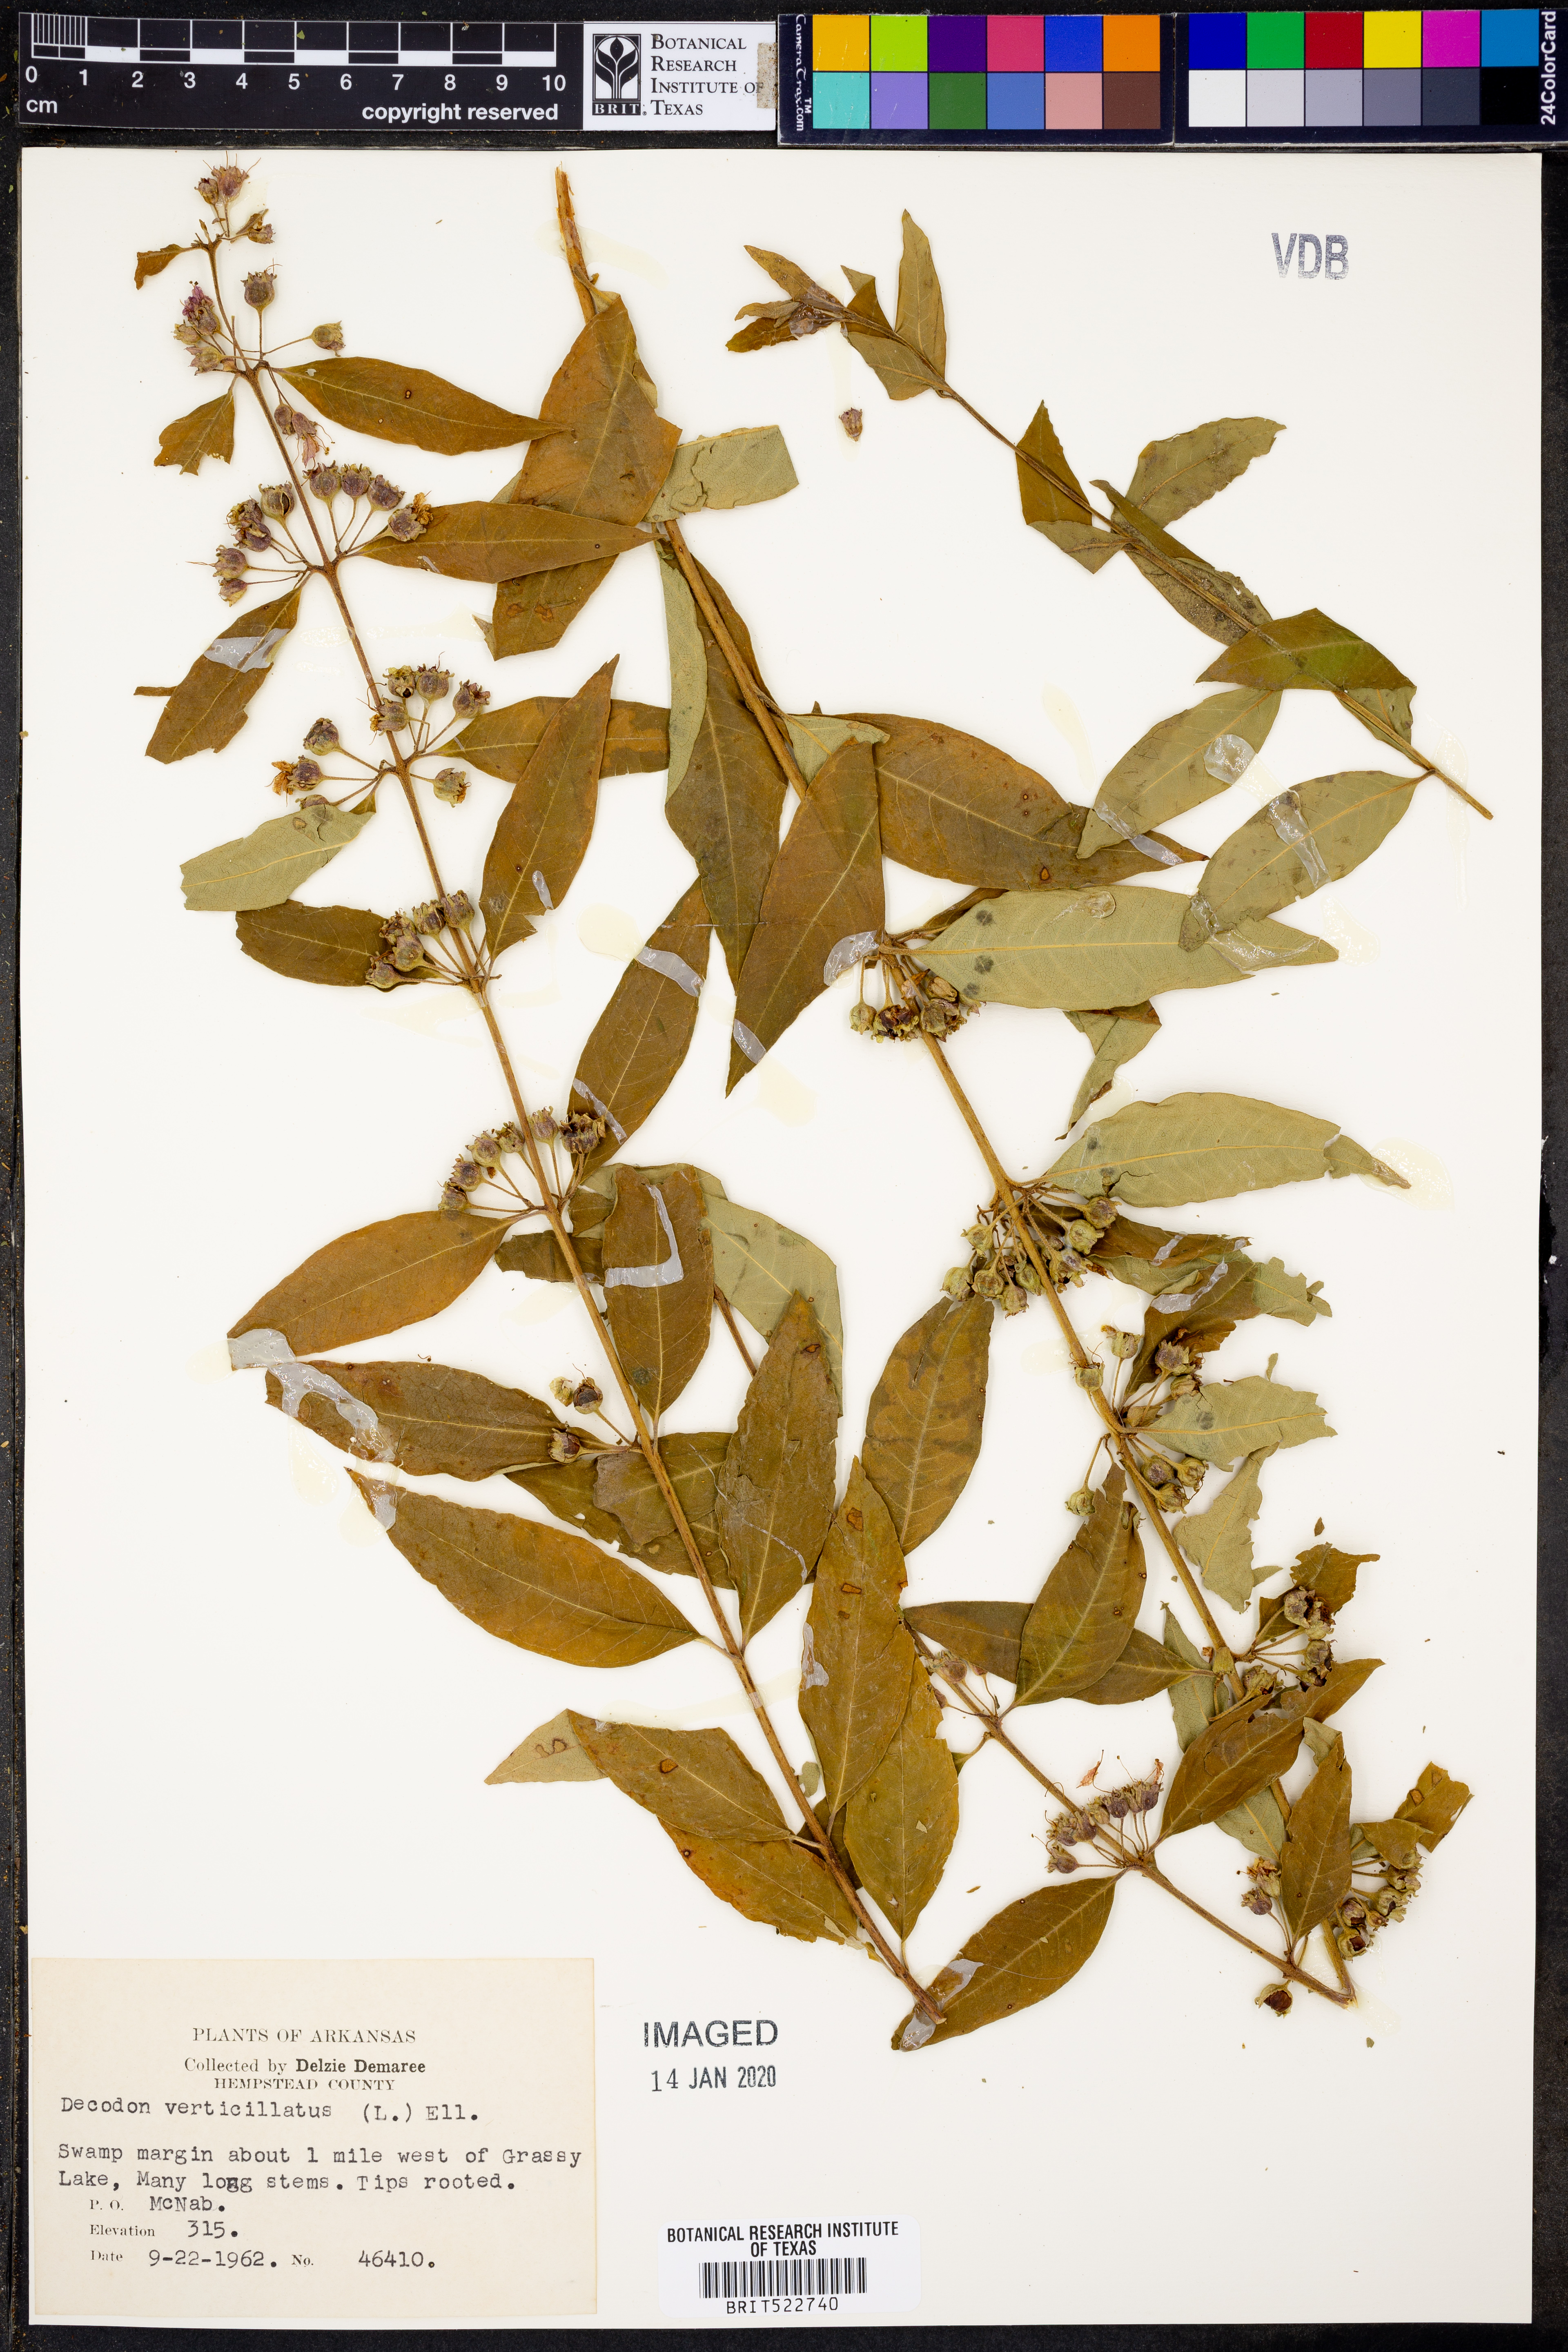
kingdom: Plantae
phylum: Tracheophyta
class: Magnoliopsida
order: Myrtales
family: Lythraceae
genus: Decodon
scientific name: Decodon verticillatus
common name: Hairy swamp loosestrife
